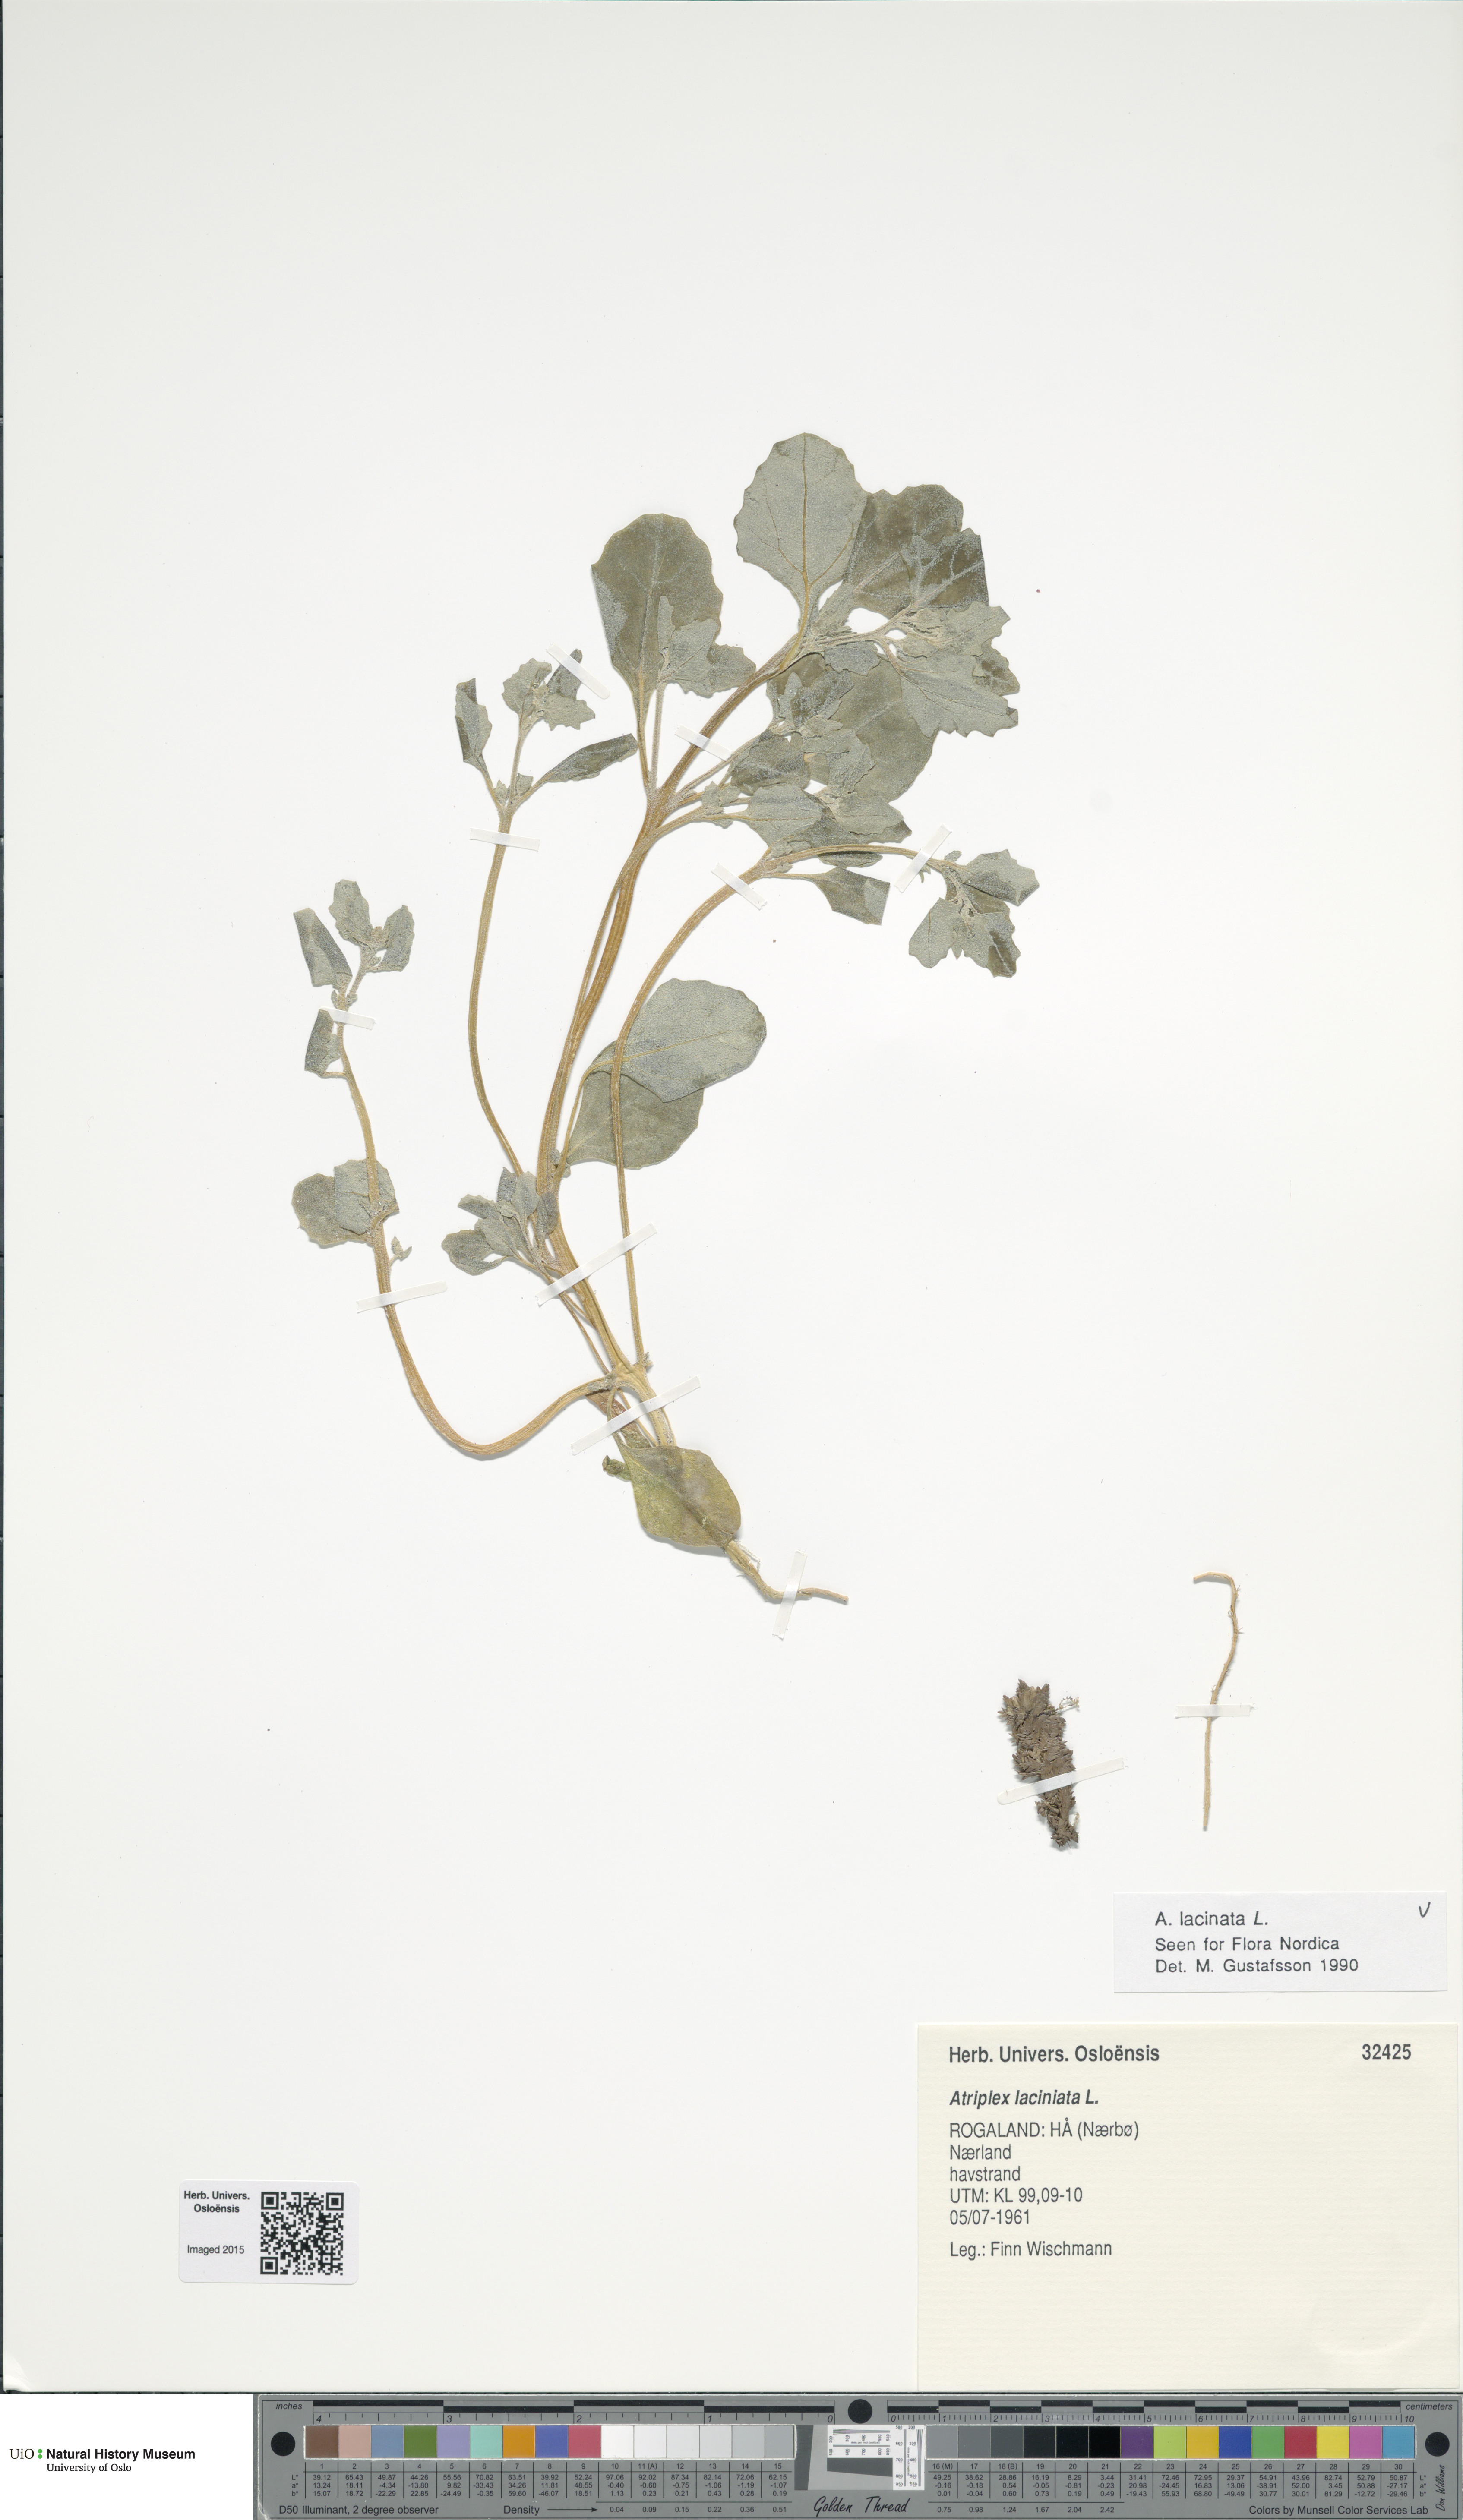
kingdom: Plantae
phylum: Tracheophyta
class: Magnoliopsida
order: Caryophyllales
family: Amaranthaceae
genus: Atriplex
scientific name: Atriplex laciniata
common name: Frosted orache
